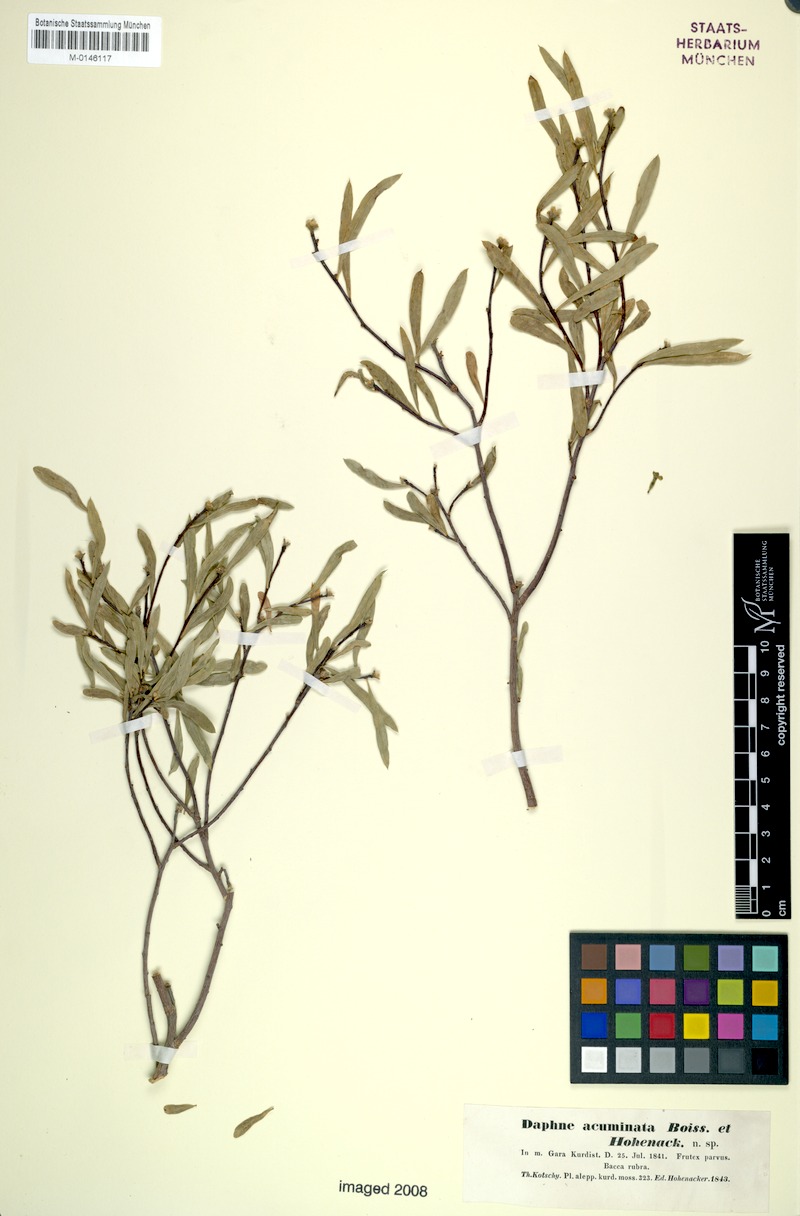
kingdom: Plantae
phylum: Tracheophyta
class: Magnoliopsida
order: Malvales
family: Thymelaeaceae
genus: Daphne
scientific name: Daphne mucronata
